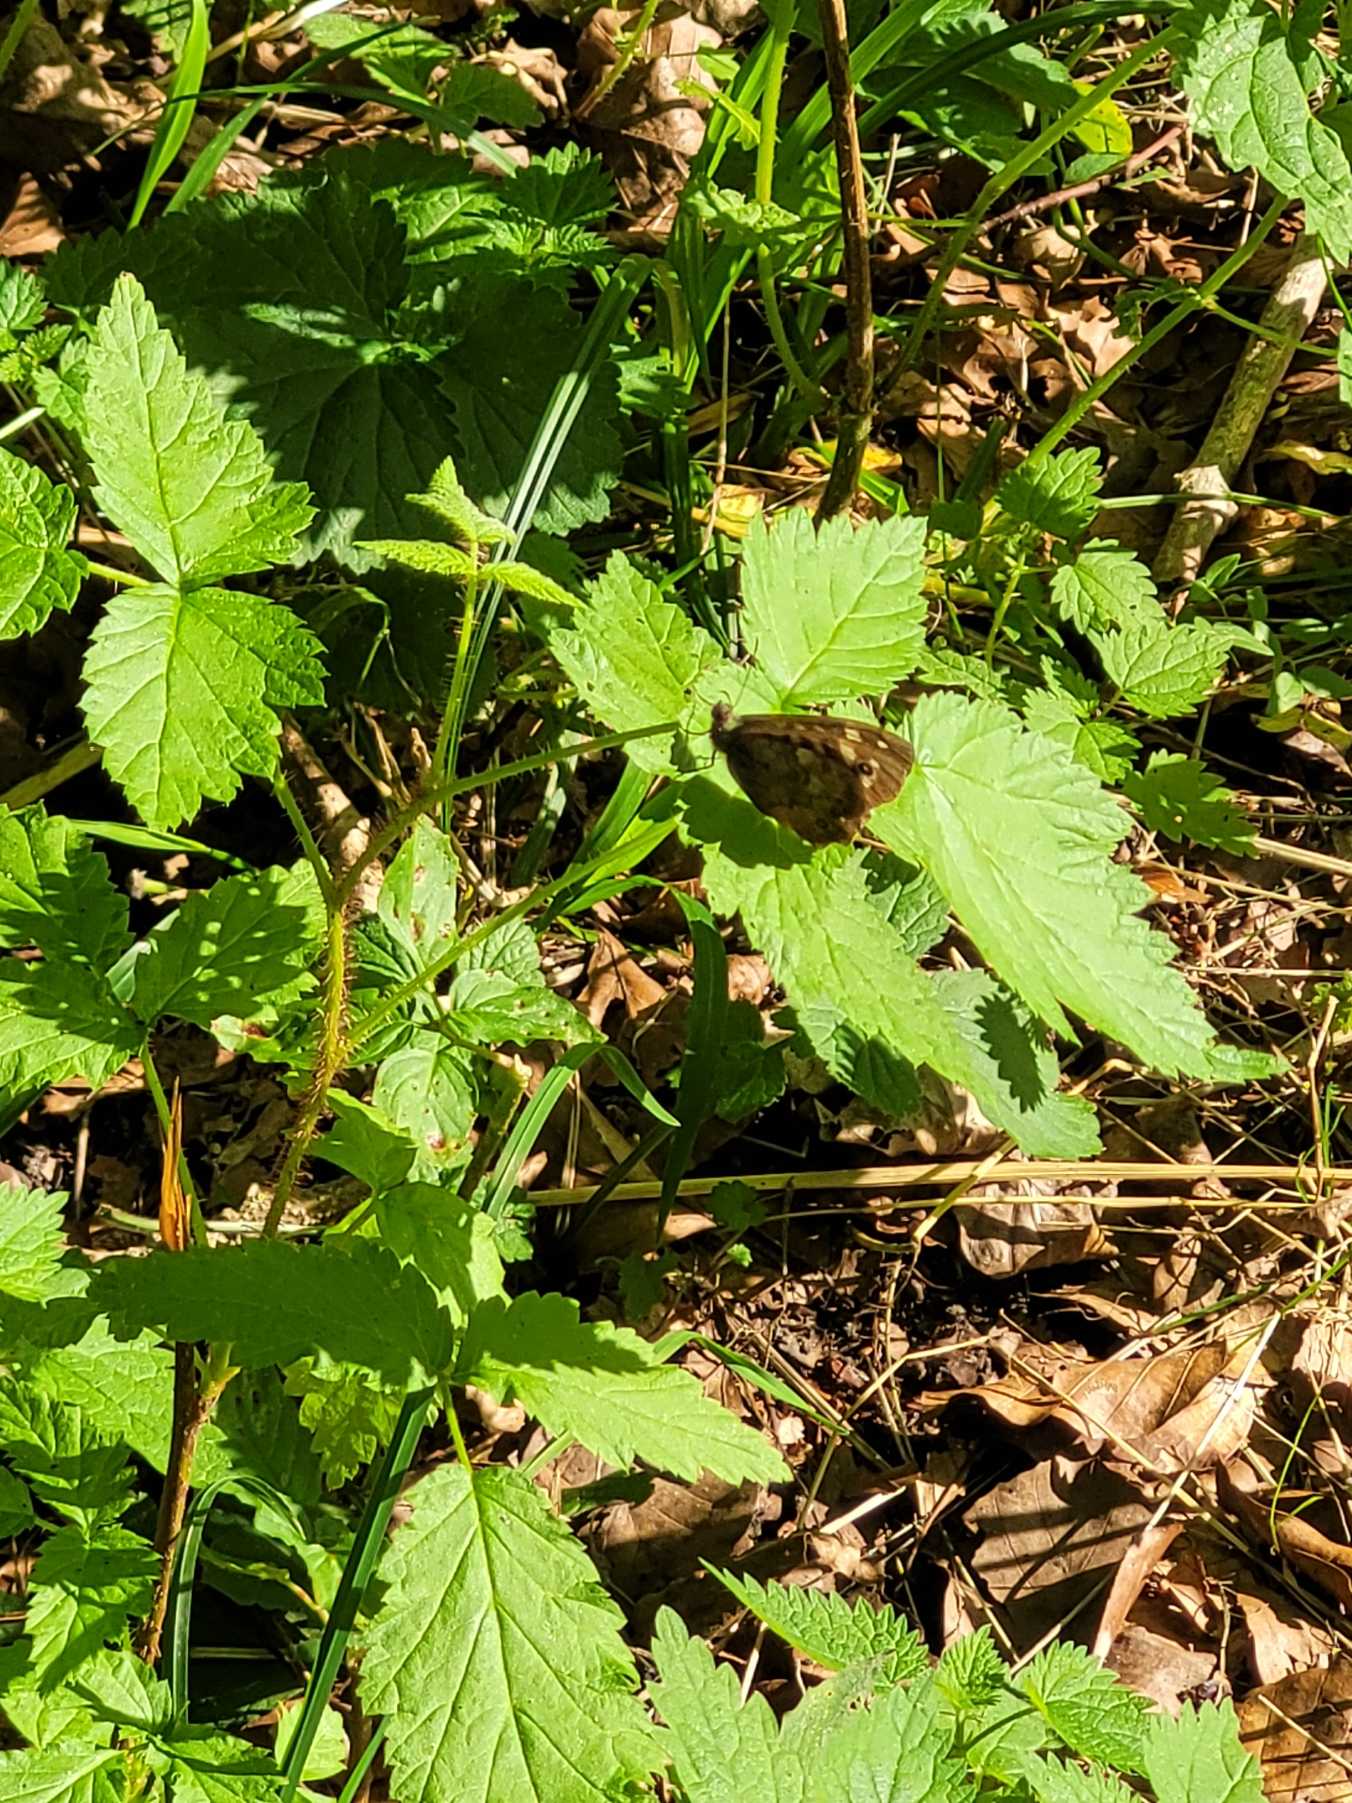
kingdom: Animalia
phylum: Arthropoda
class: Insecta
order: Lepidoptera
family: Nymphalidae
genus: Pararge
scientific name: Pararge aegeria
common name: Skovrandøje
